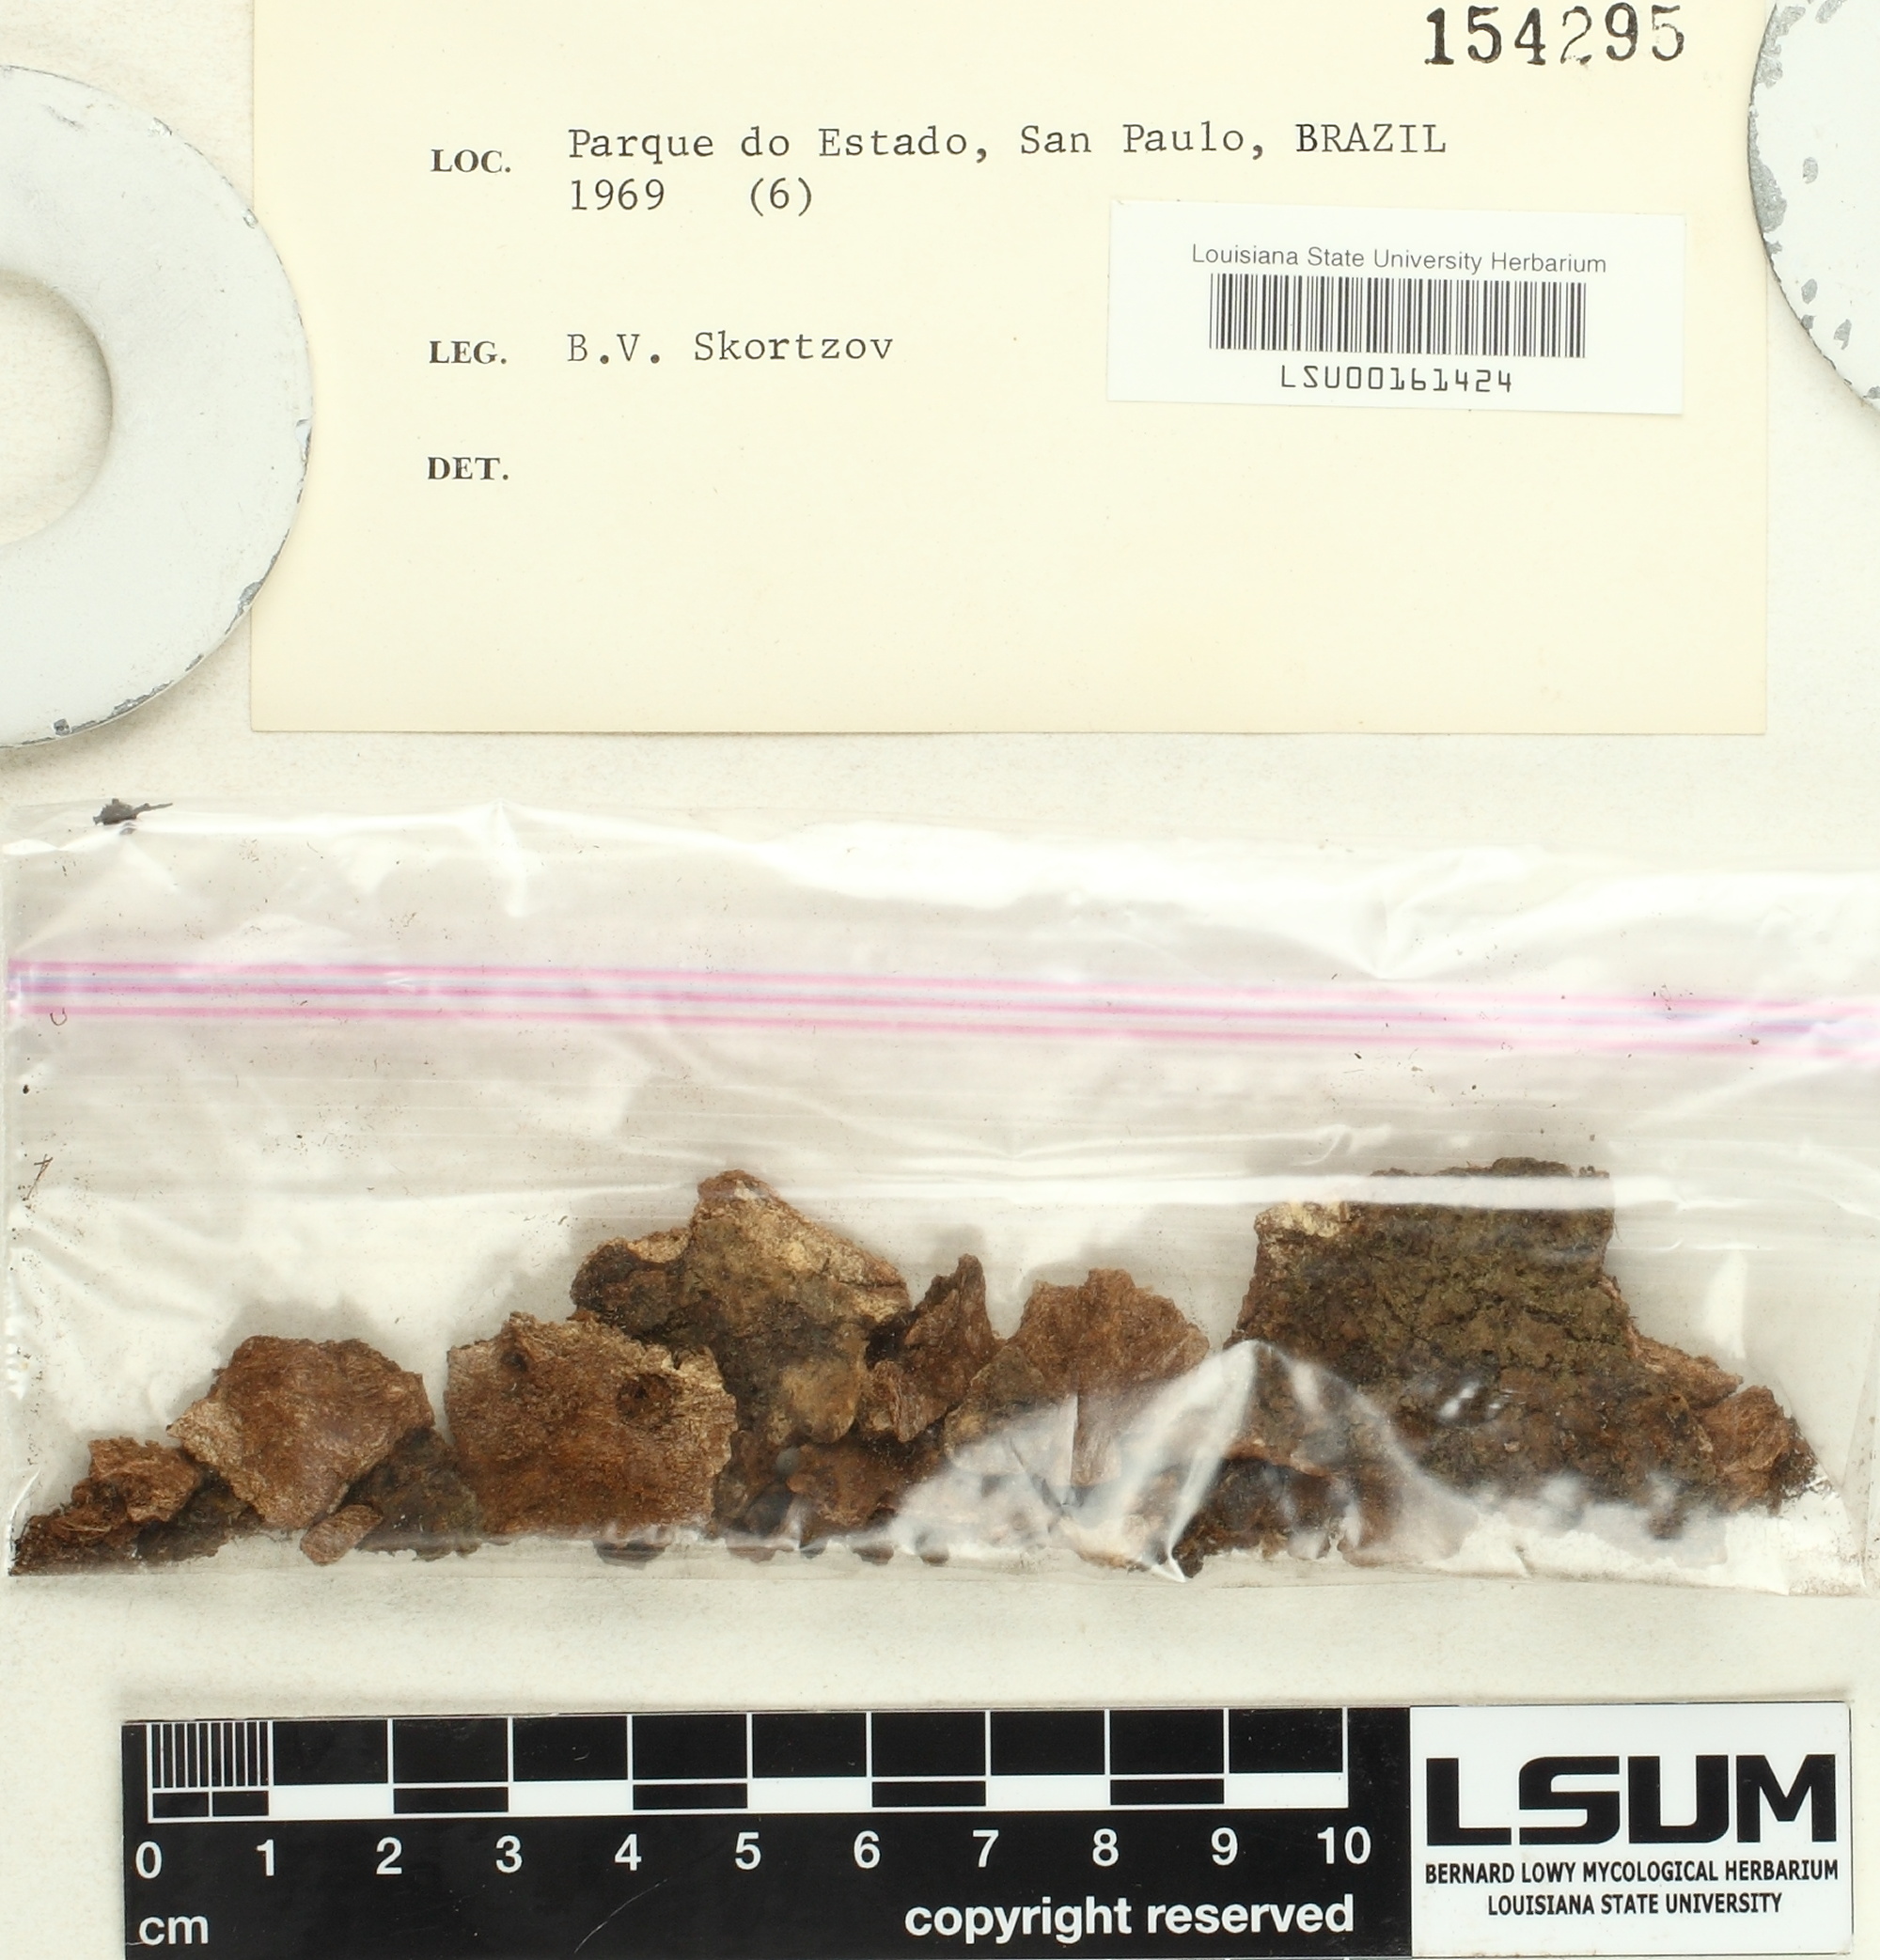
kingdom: Fungi
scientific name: Fungi
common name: Fungi
